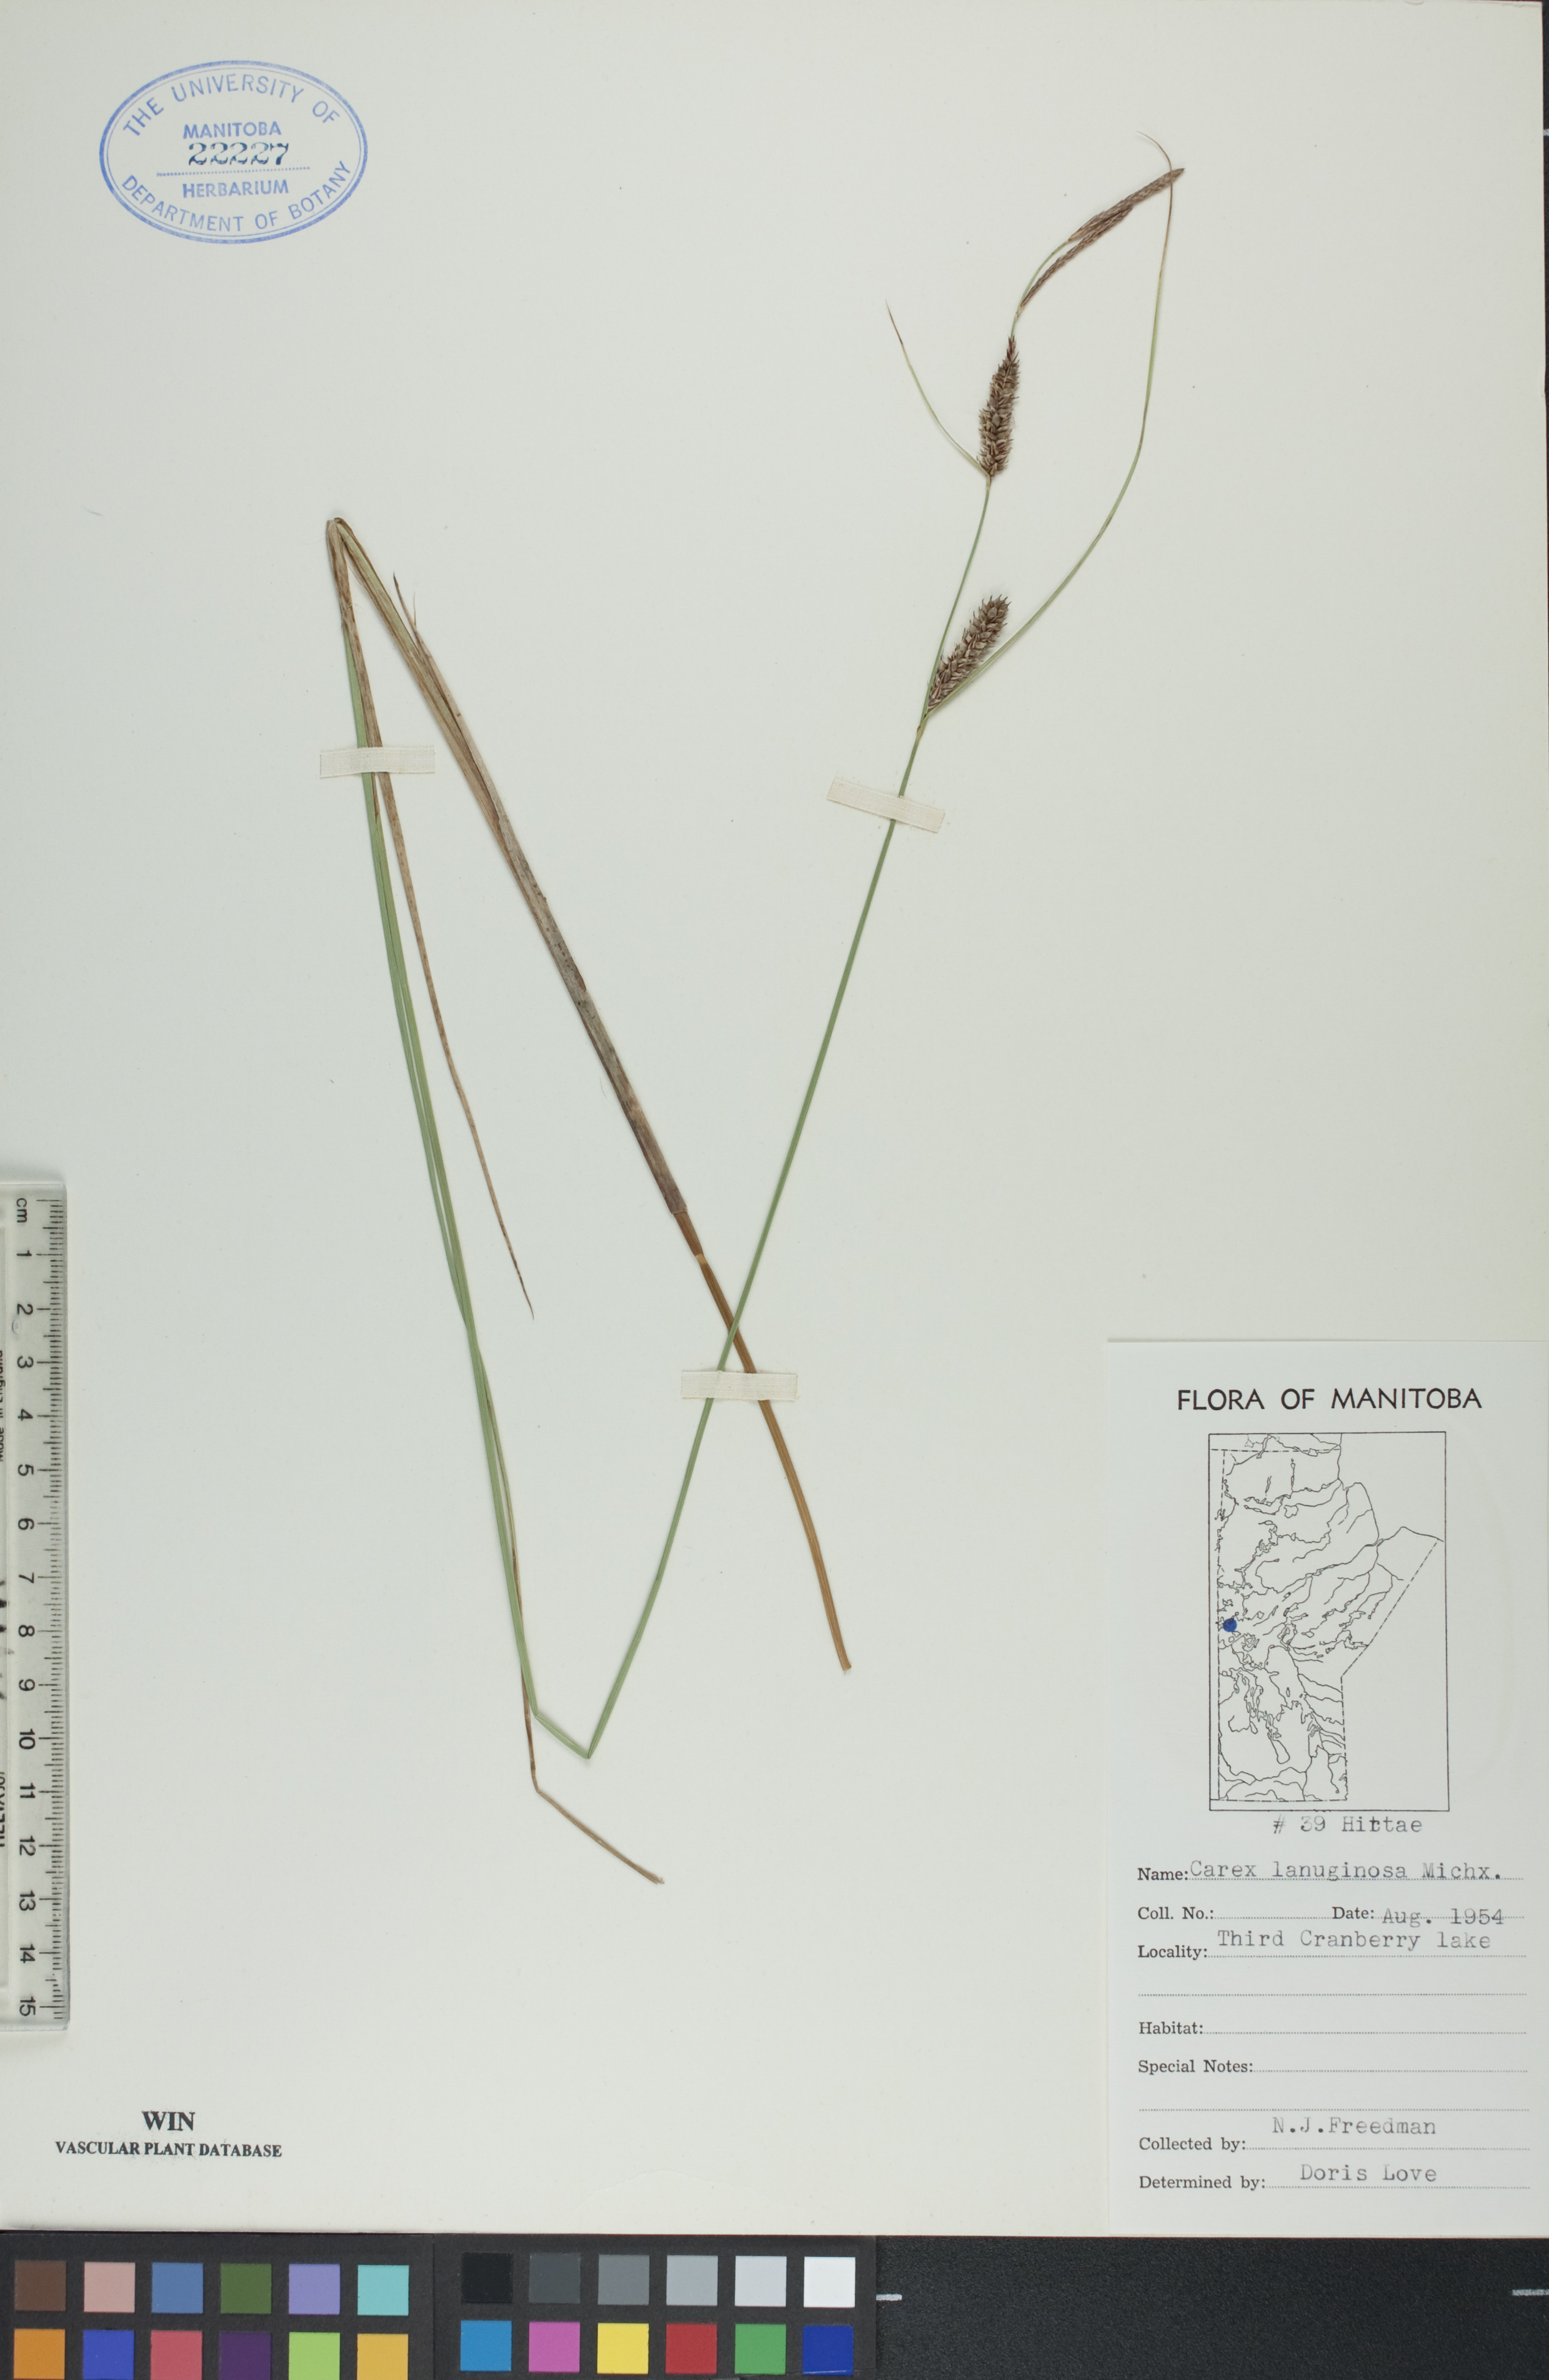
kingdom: Plantae
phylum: Tracheophyta
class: Liliopsida
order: Poales
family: Cyperaceae
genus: Carex
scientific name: Carex lasiocarpa
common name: Slender sedge
